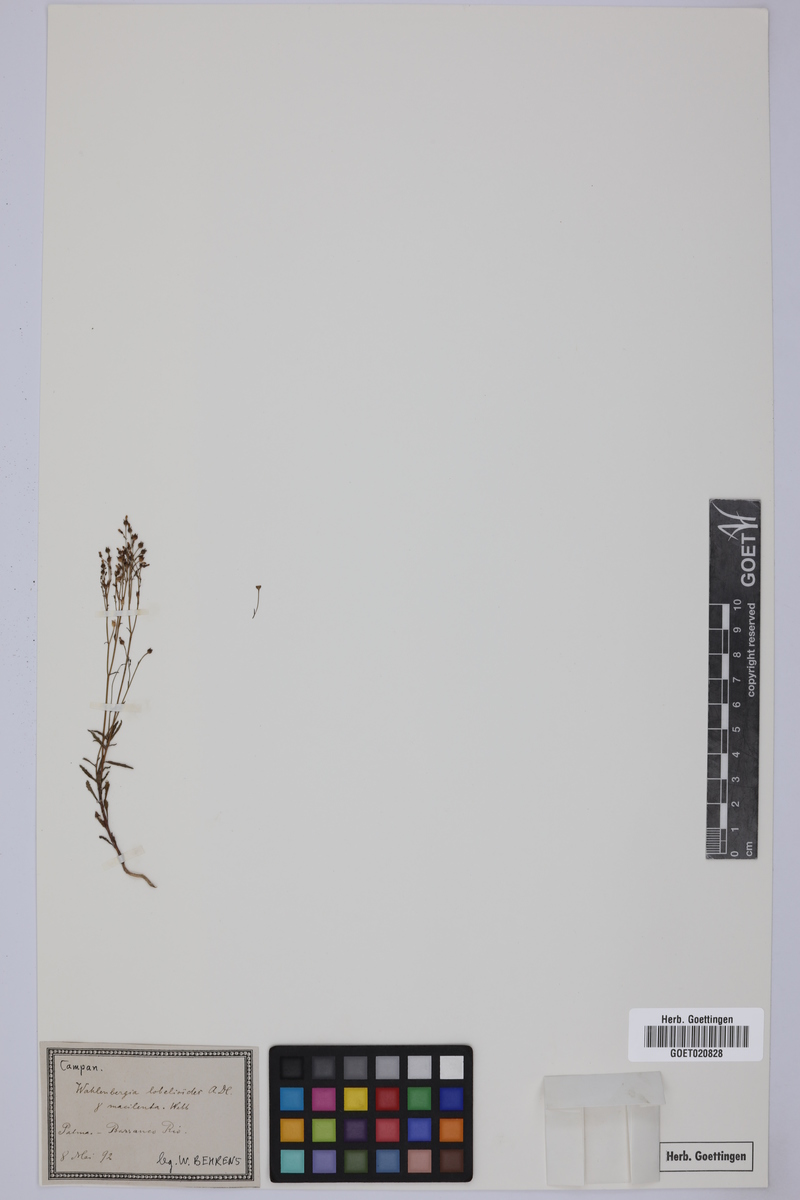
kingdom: Plantae
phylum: Tracheophyta
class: Magnoliopsida
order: Asterales
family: Campanulaceae
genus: Wahlenbergia
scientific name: Wahlenbergia lobelioides
